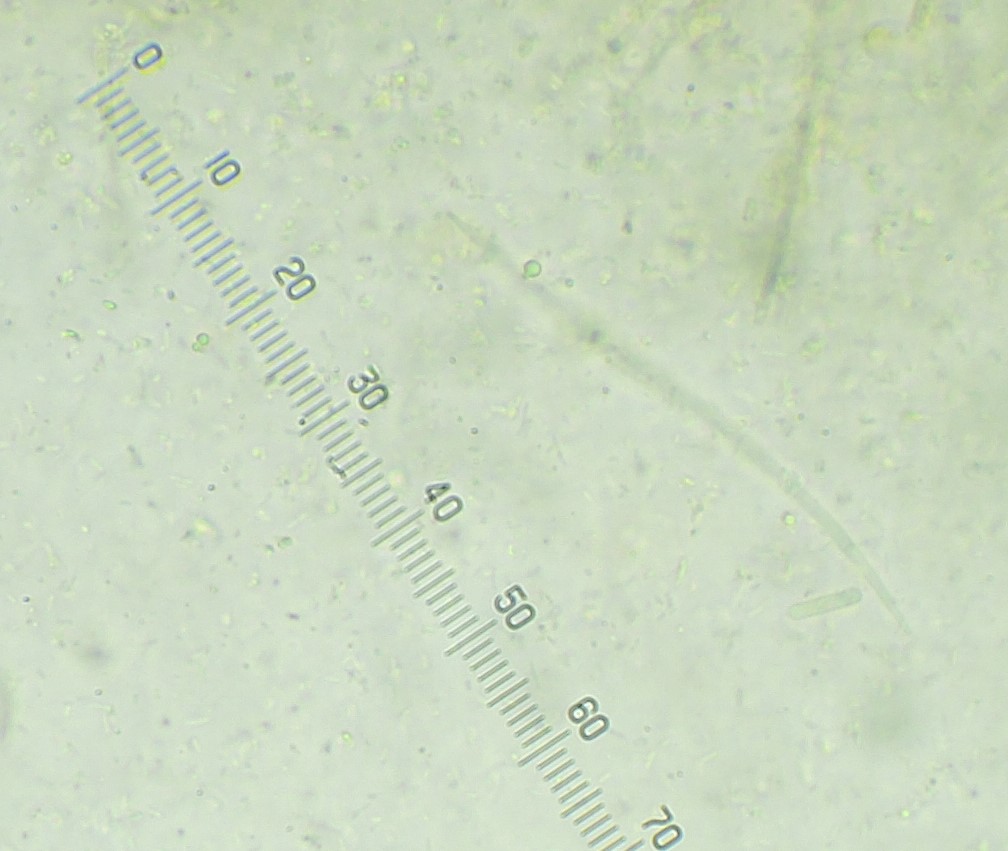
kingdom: Fungi
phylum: Ascomycota
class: Leotiomycetes
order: Helotiales
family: Lachnaceae
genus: Lachnellula
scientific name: Lachnellula pseudofarinacea
